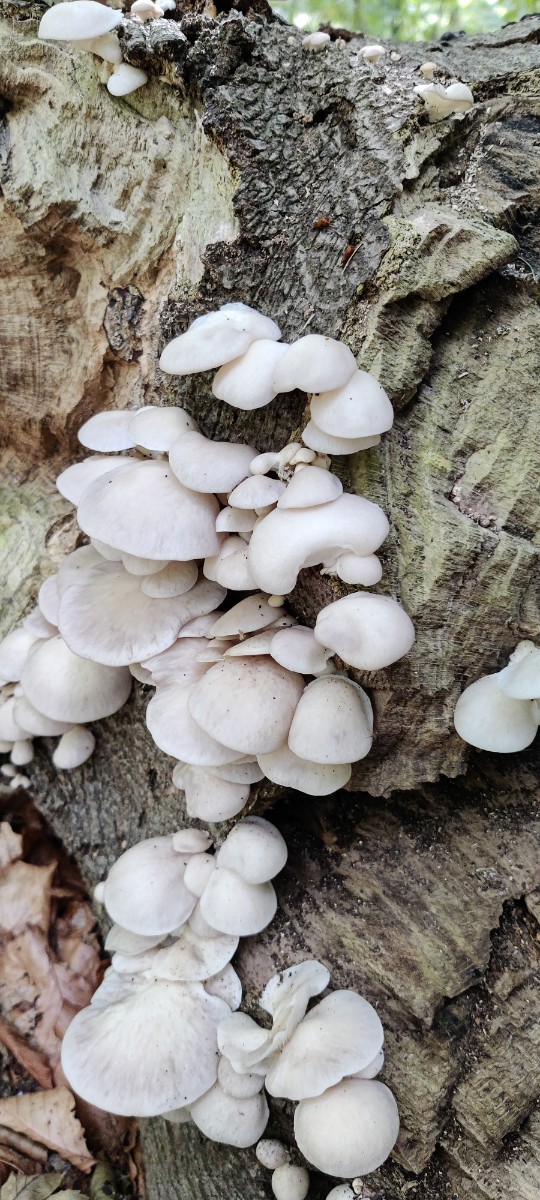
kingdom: Fungi
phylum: Basidiomycota
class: Agaricomycetes
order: Agaricales
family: Pleurotaceae
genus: Pleurotus
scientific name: Pleurotus pulmonarius
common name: sommer-østershat
